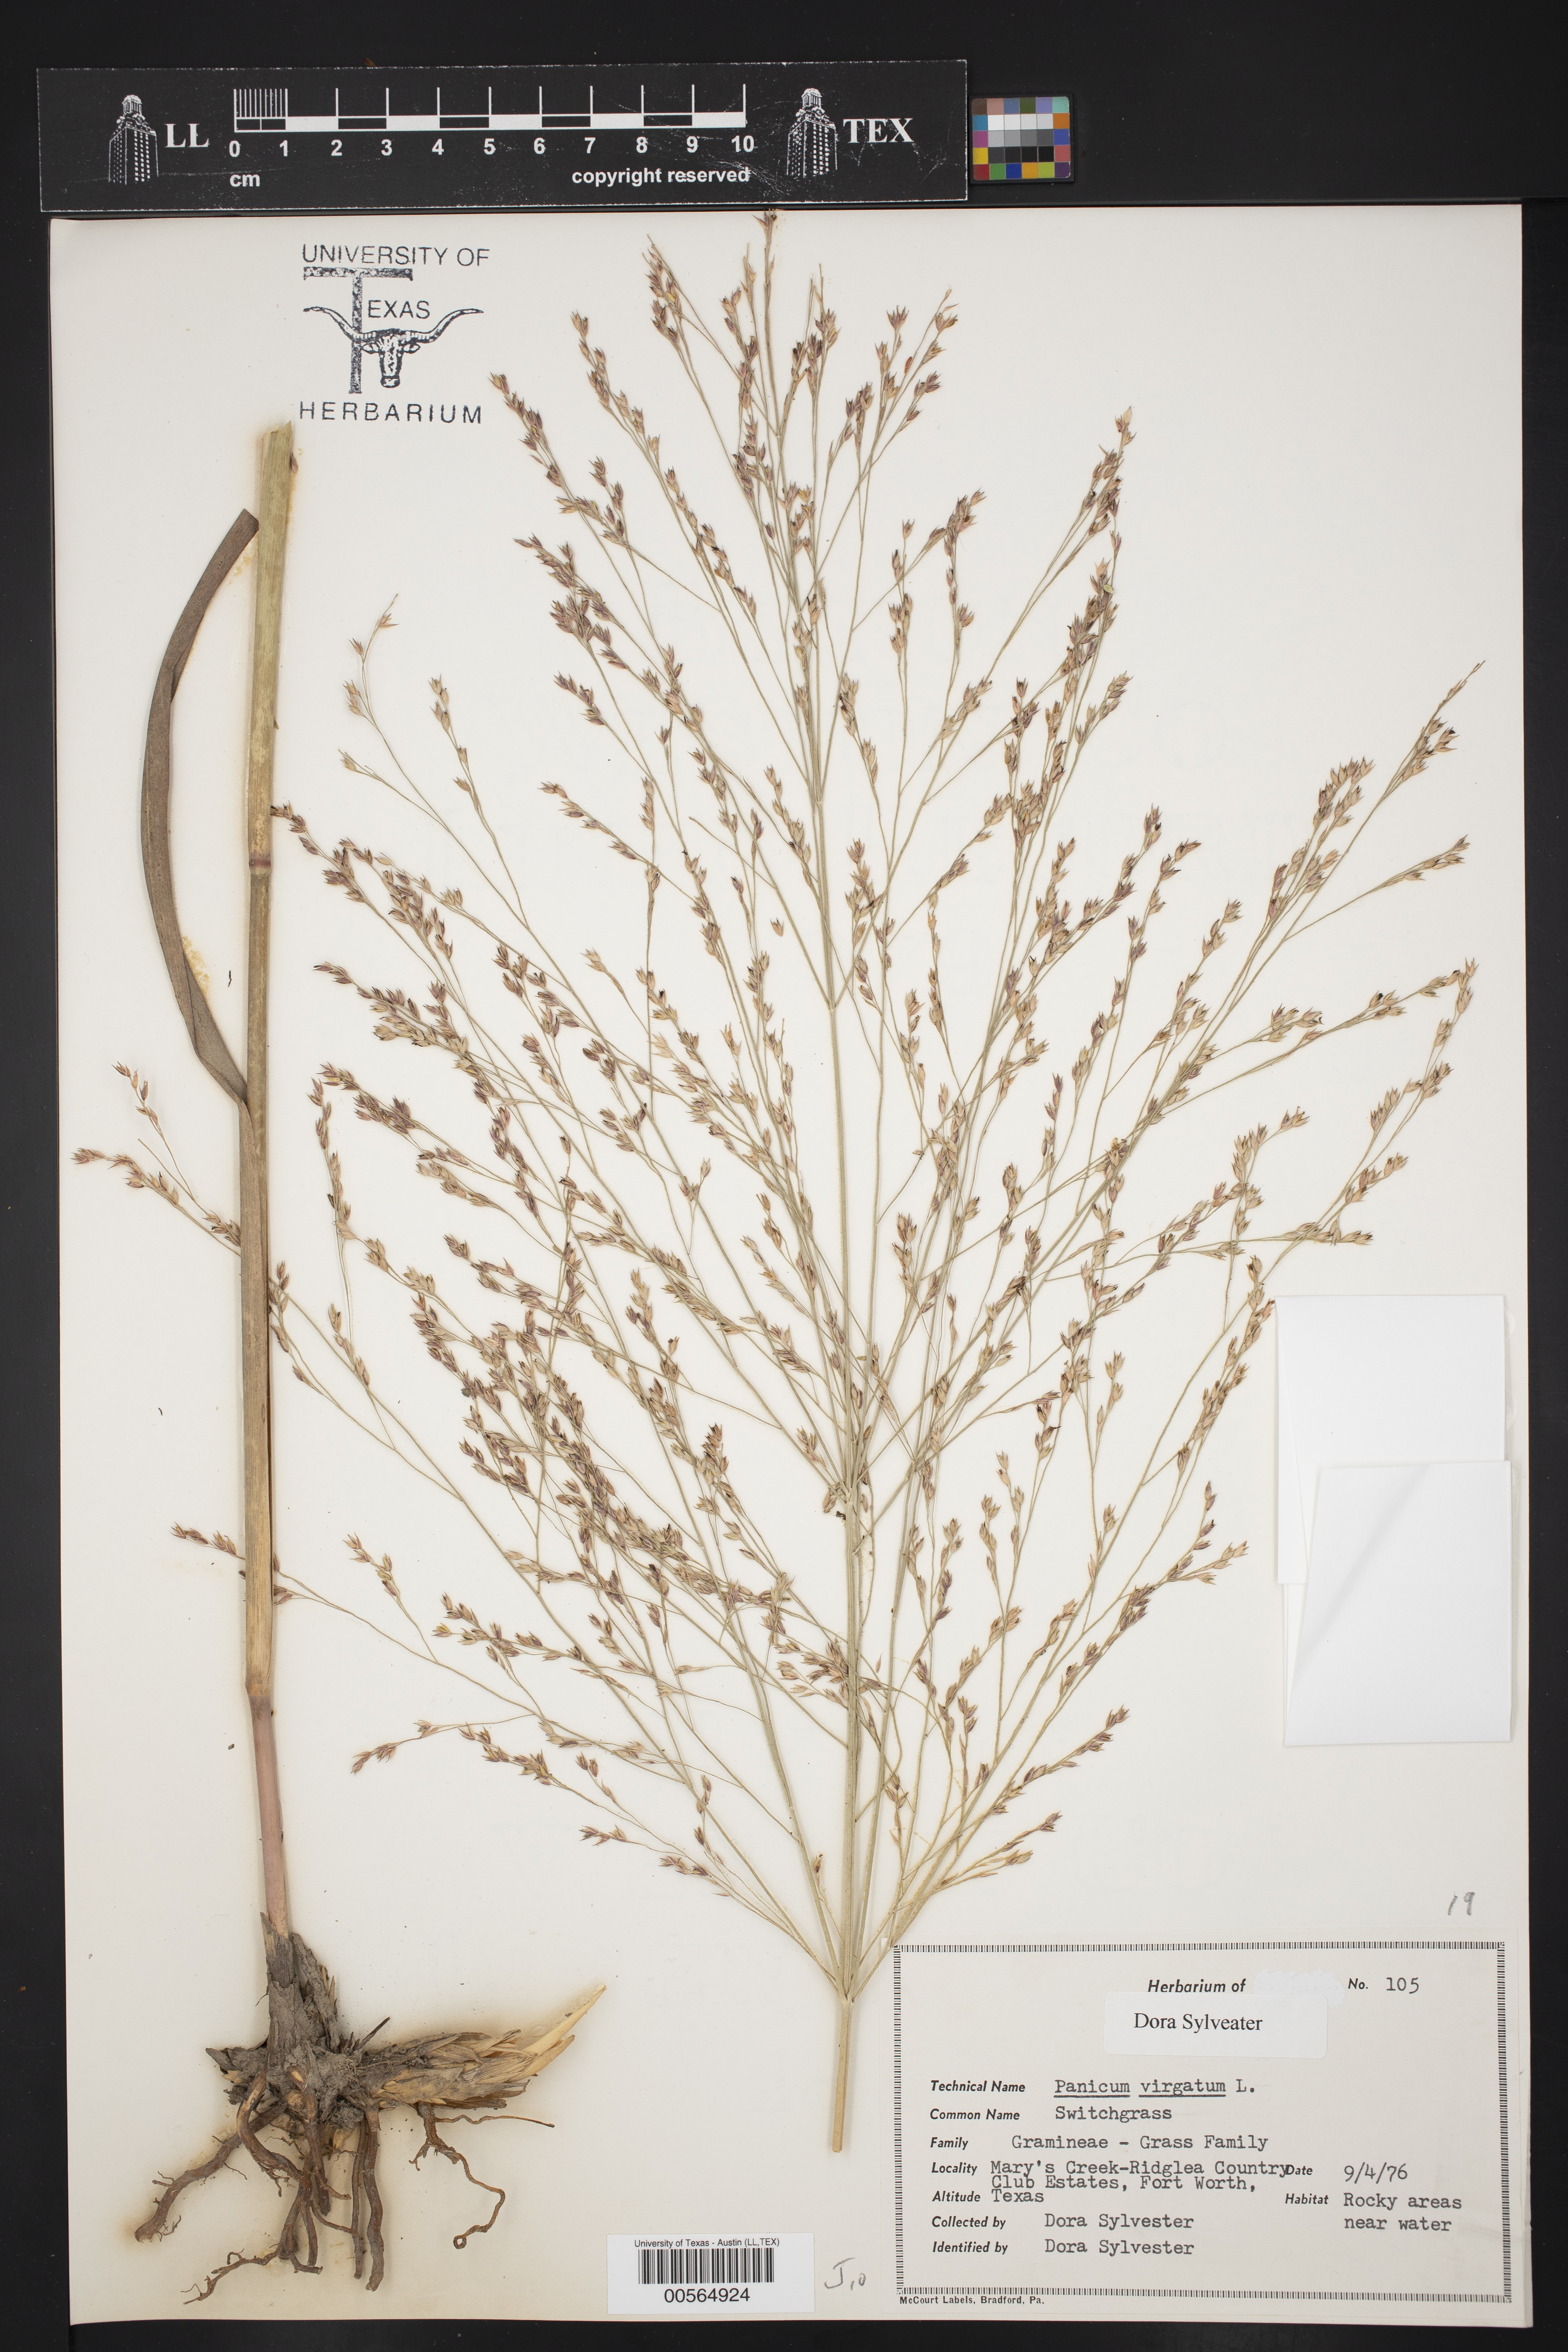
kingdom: Plantae
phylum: Tracheophyta
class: Liliopsida
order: Poales
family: Poaceae
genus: Panicum
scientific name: Panicum virgatum
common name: Switchgrass
